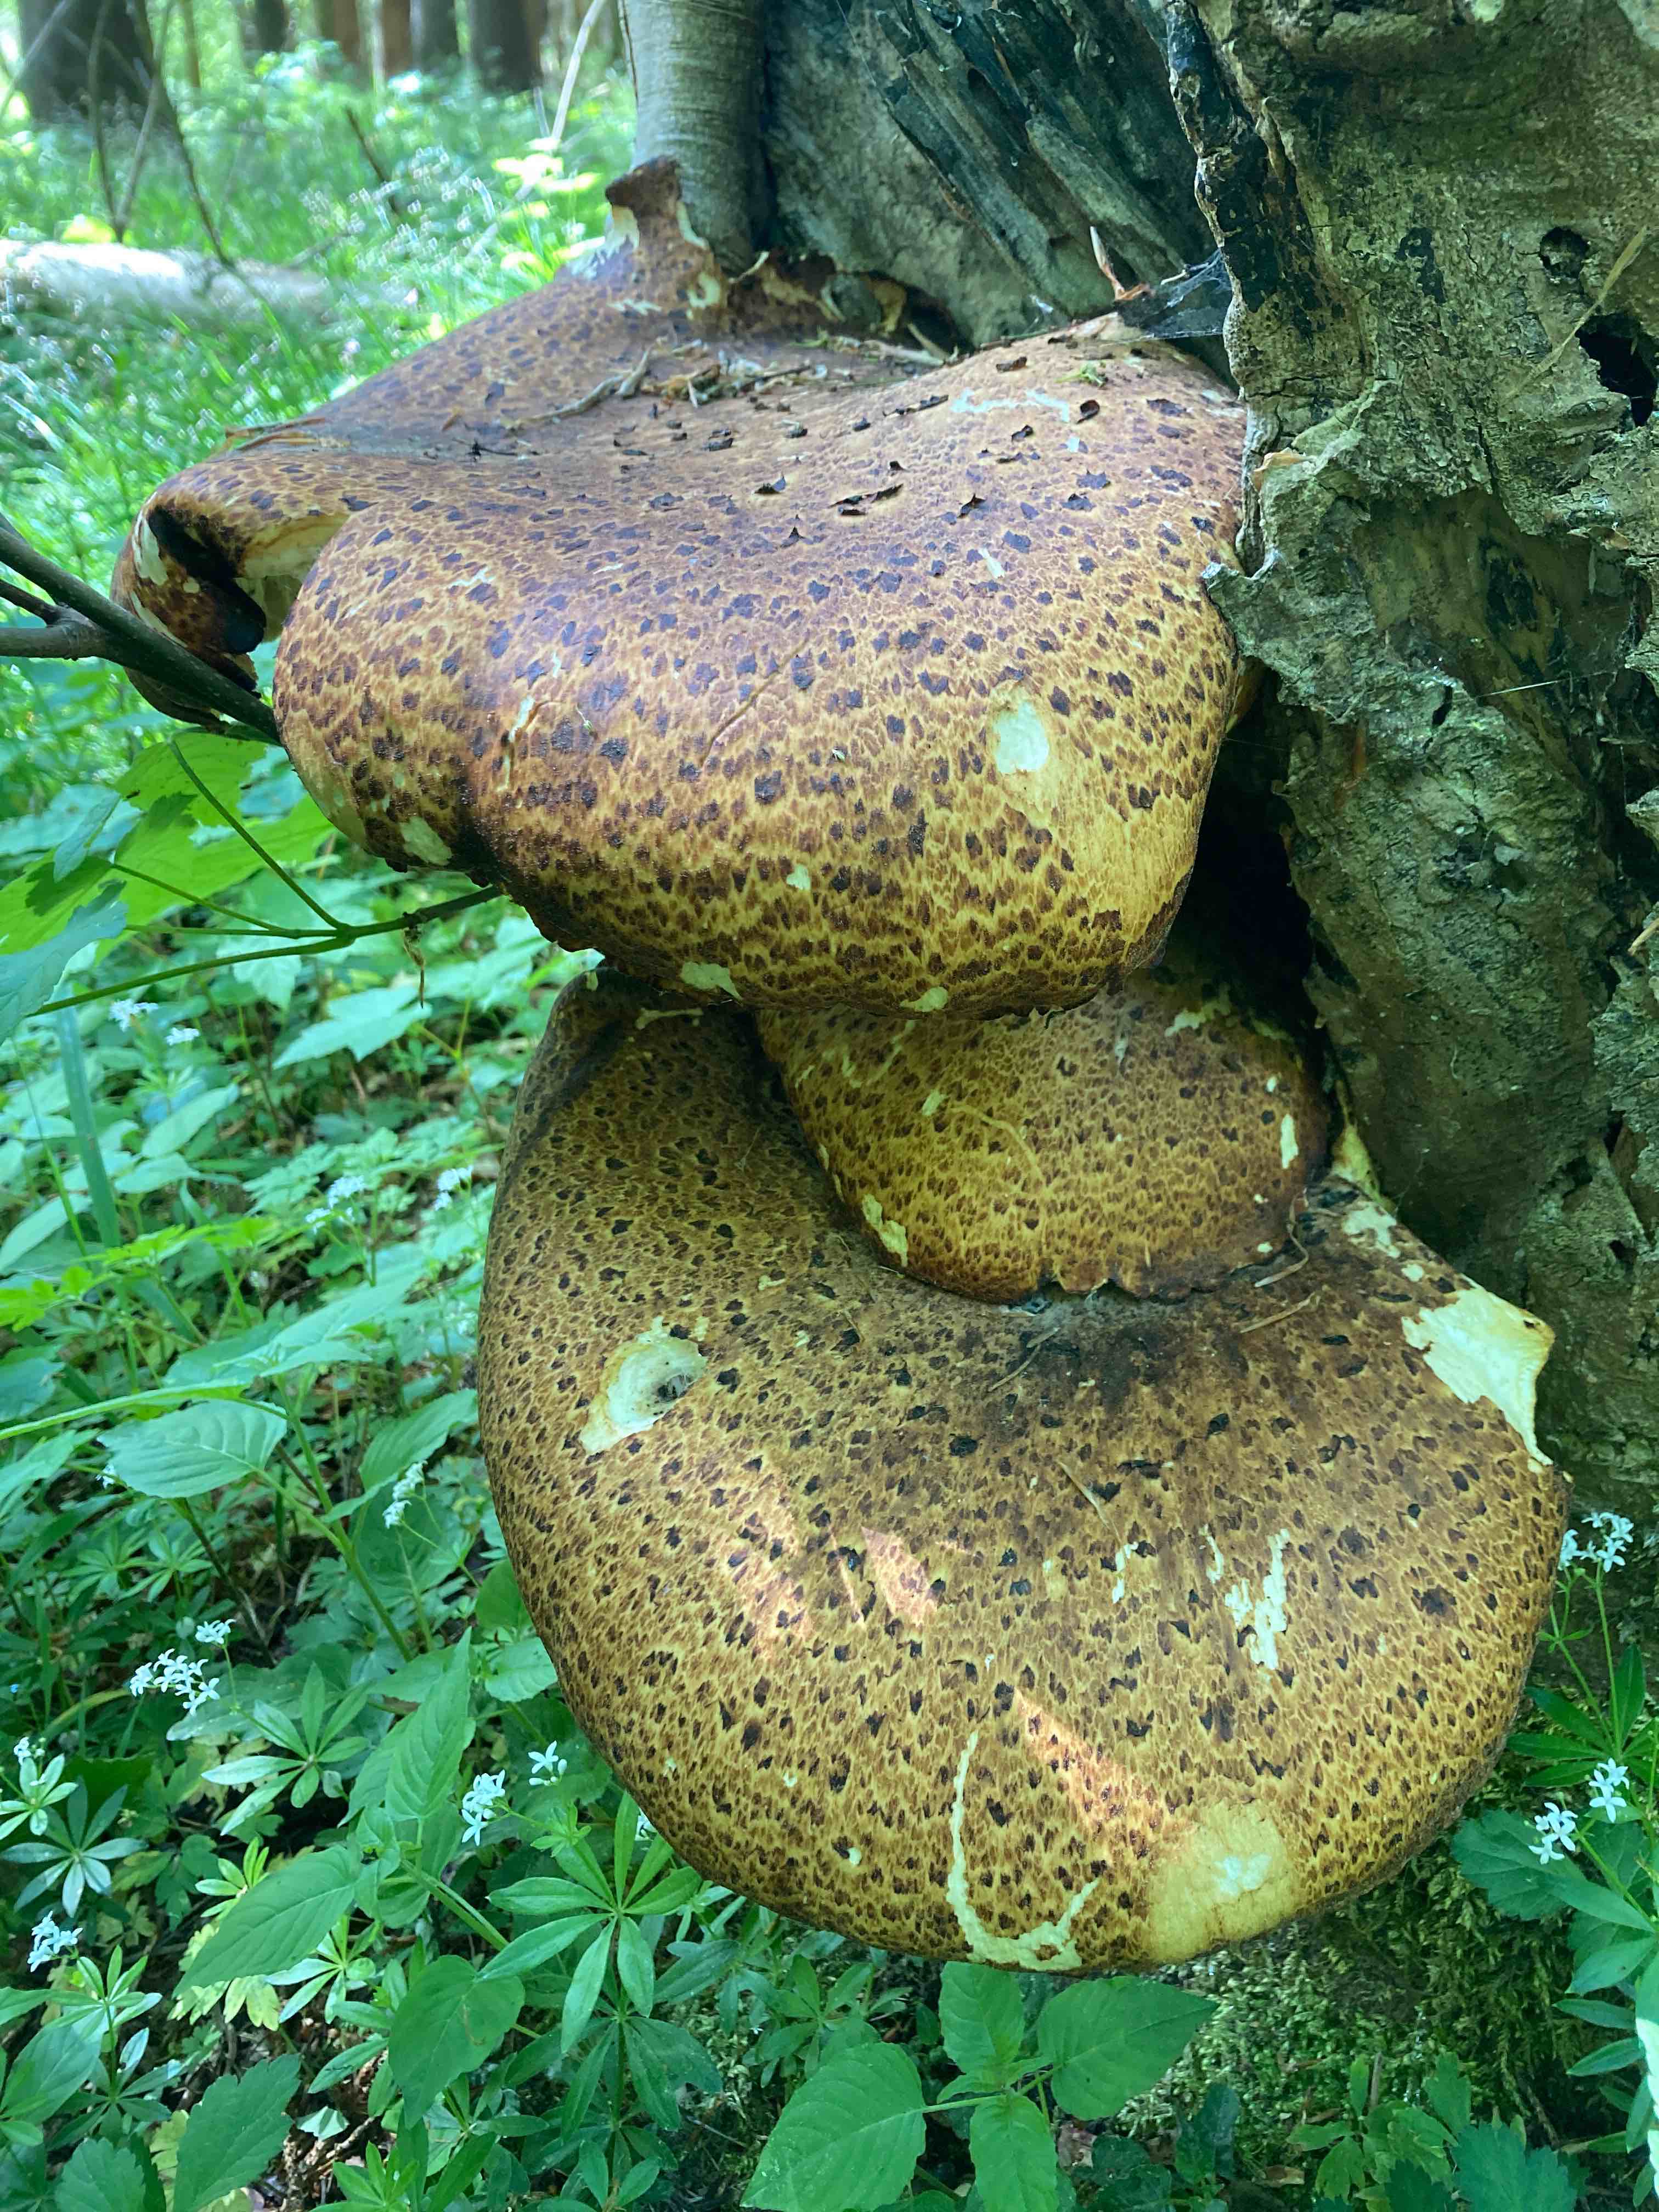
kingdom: Fungi
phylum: Basidiomycota
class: Agaricomycetes
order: Polyporales
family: Polyporaceae
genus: Cerioporus
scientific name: Cerioporus squamosus
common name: skællet stilkporesvamp
